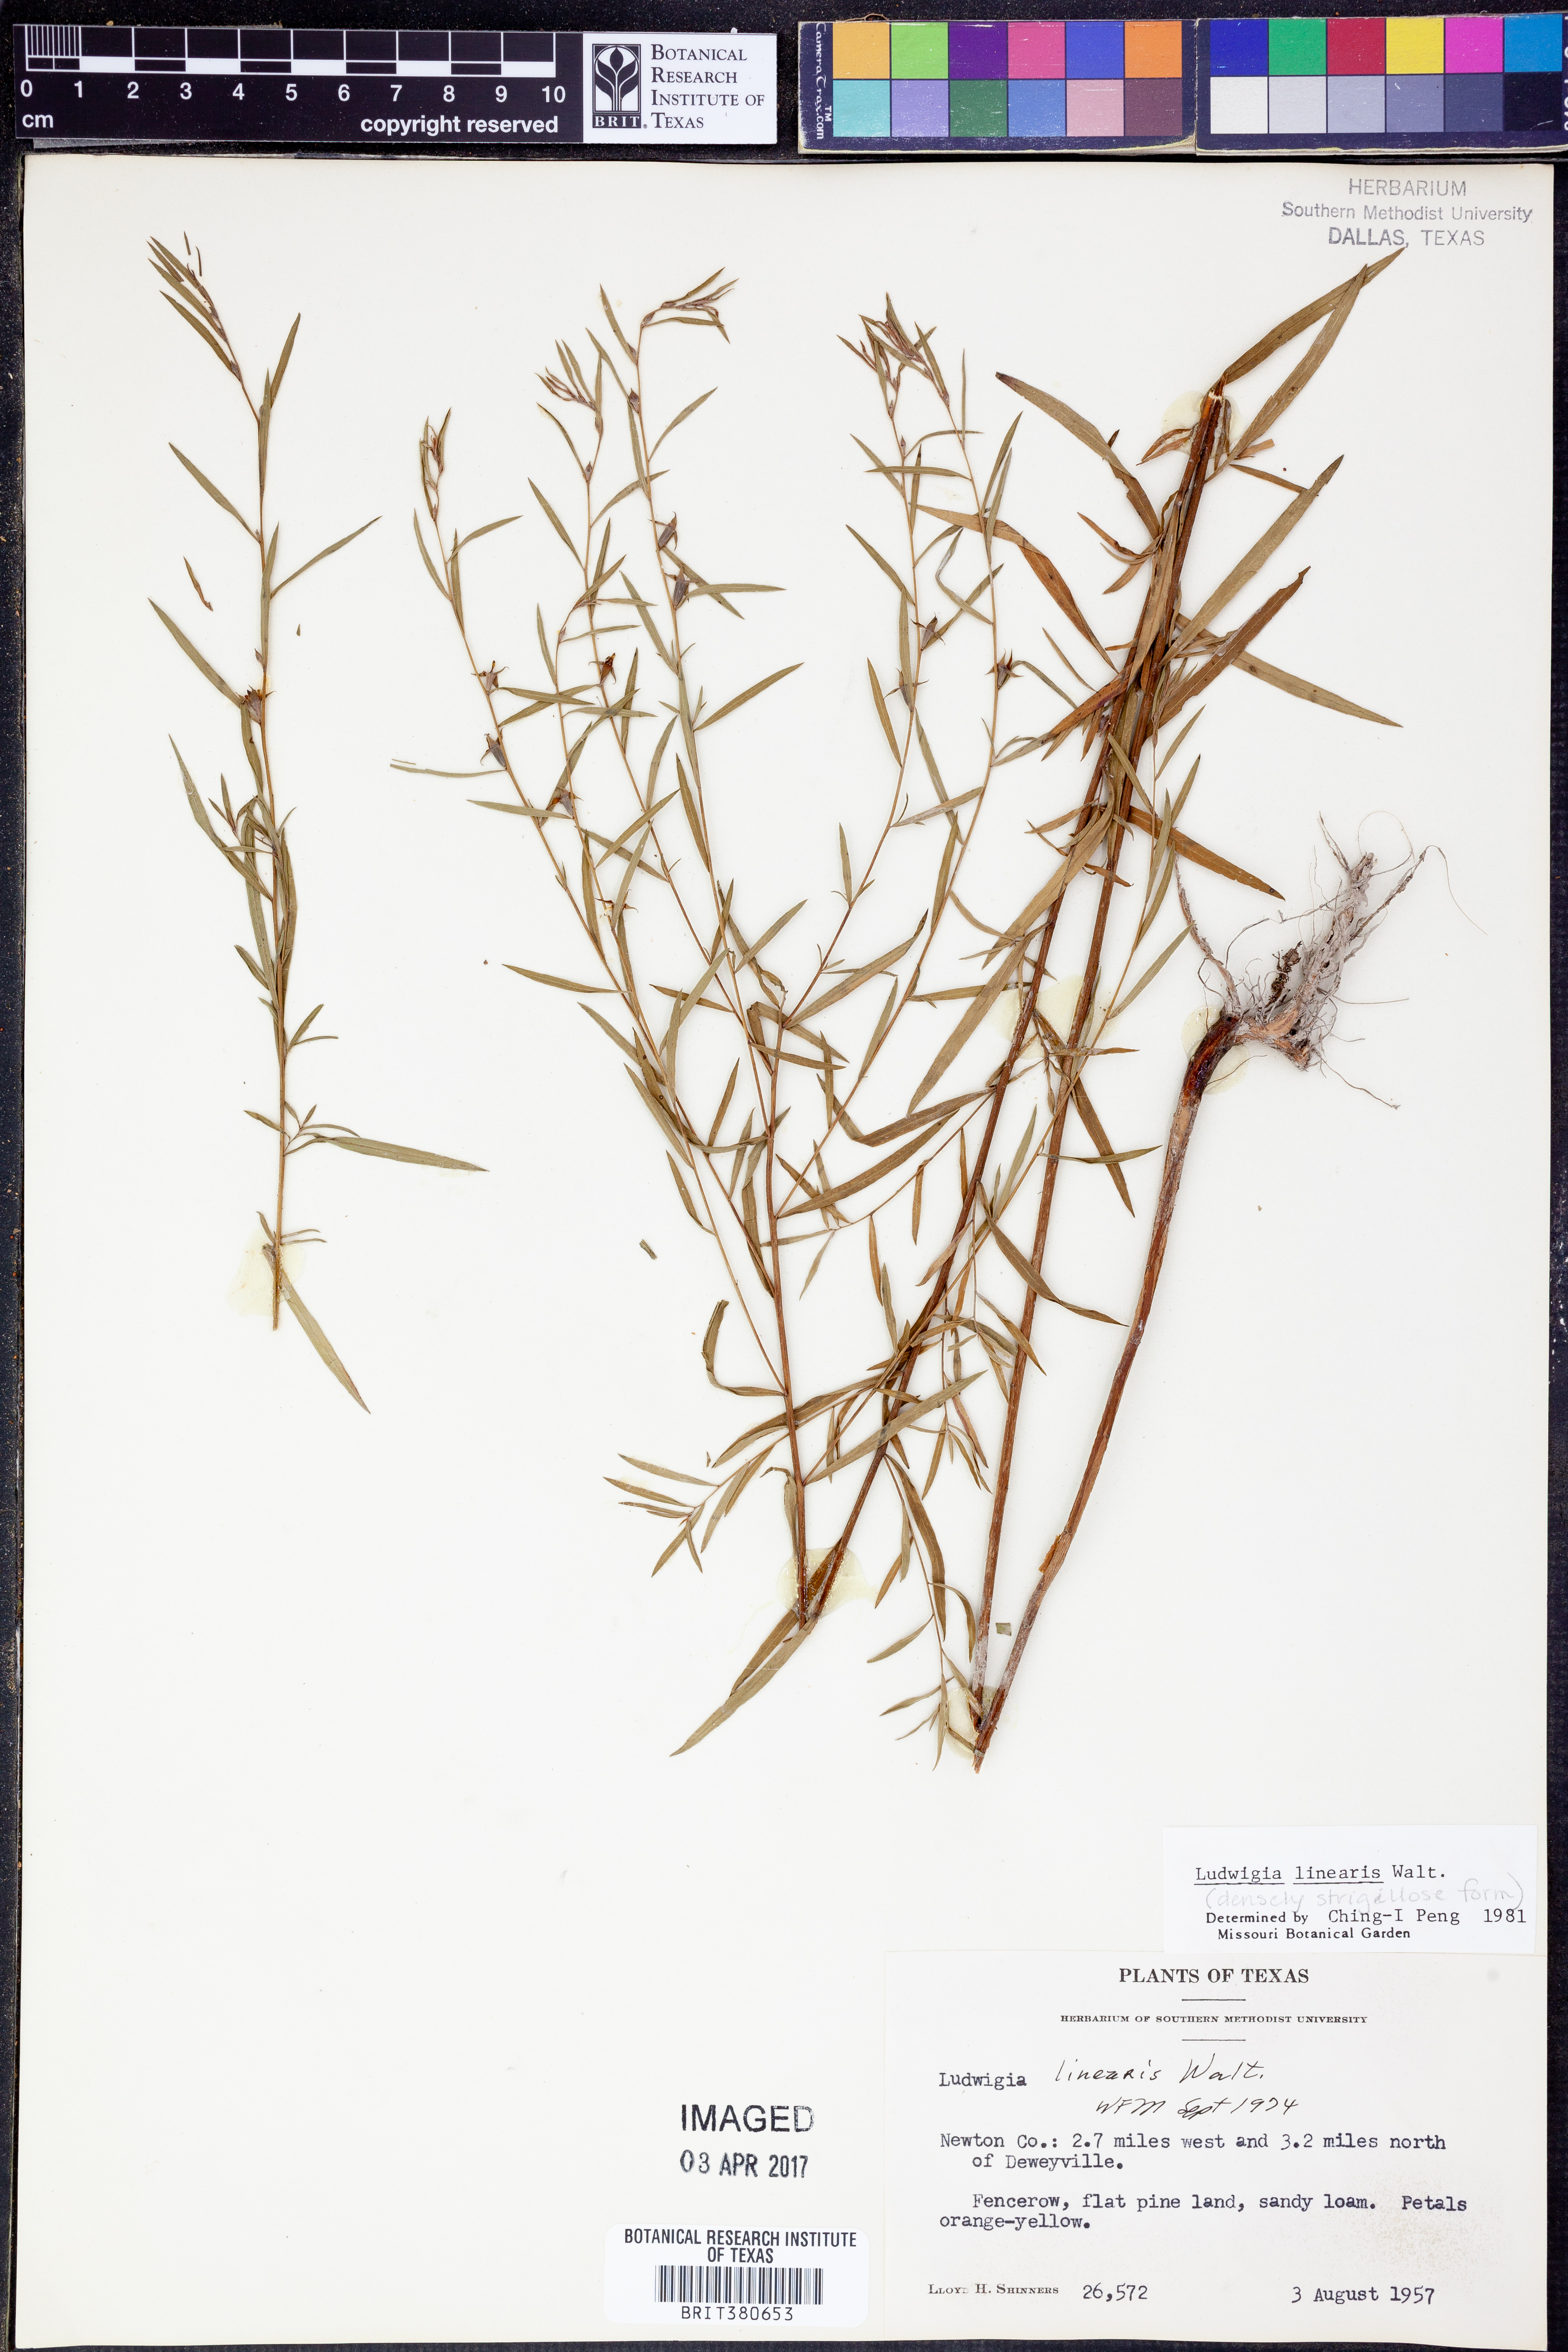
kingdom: Plantae
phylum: Tracheophyta
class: Magnoliopsida
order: Myrtales
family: Onagraceae
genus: Ludwigia
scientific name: Ludwigia linearis
